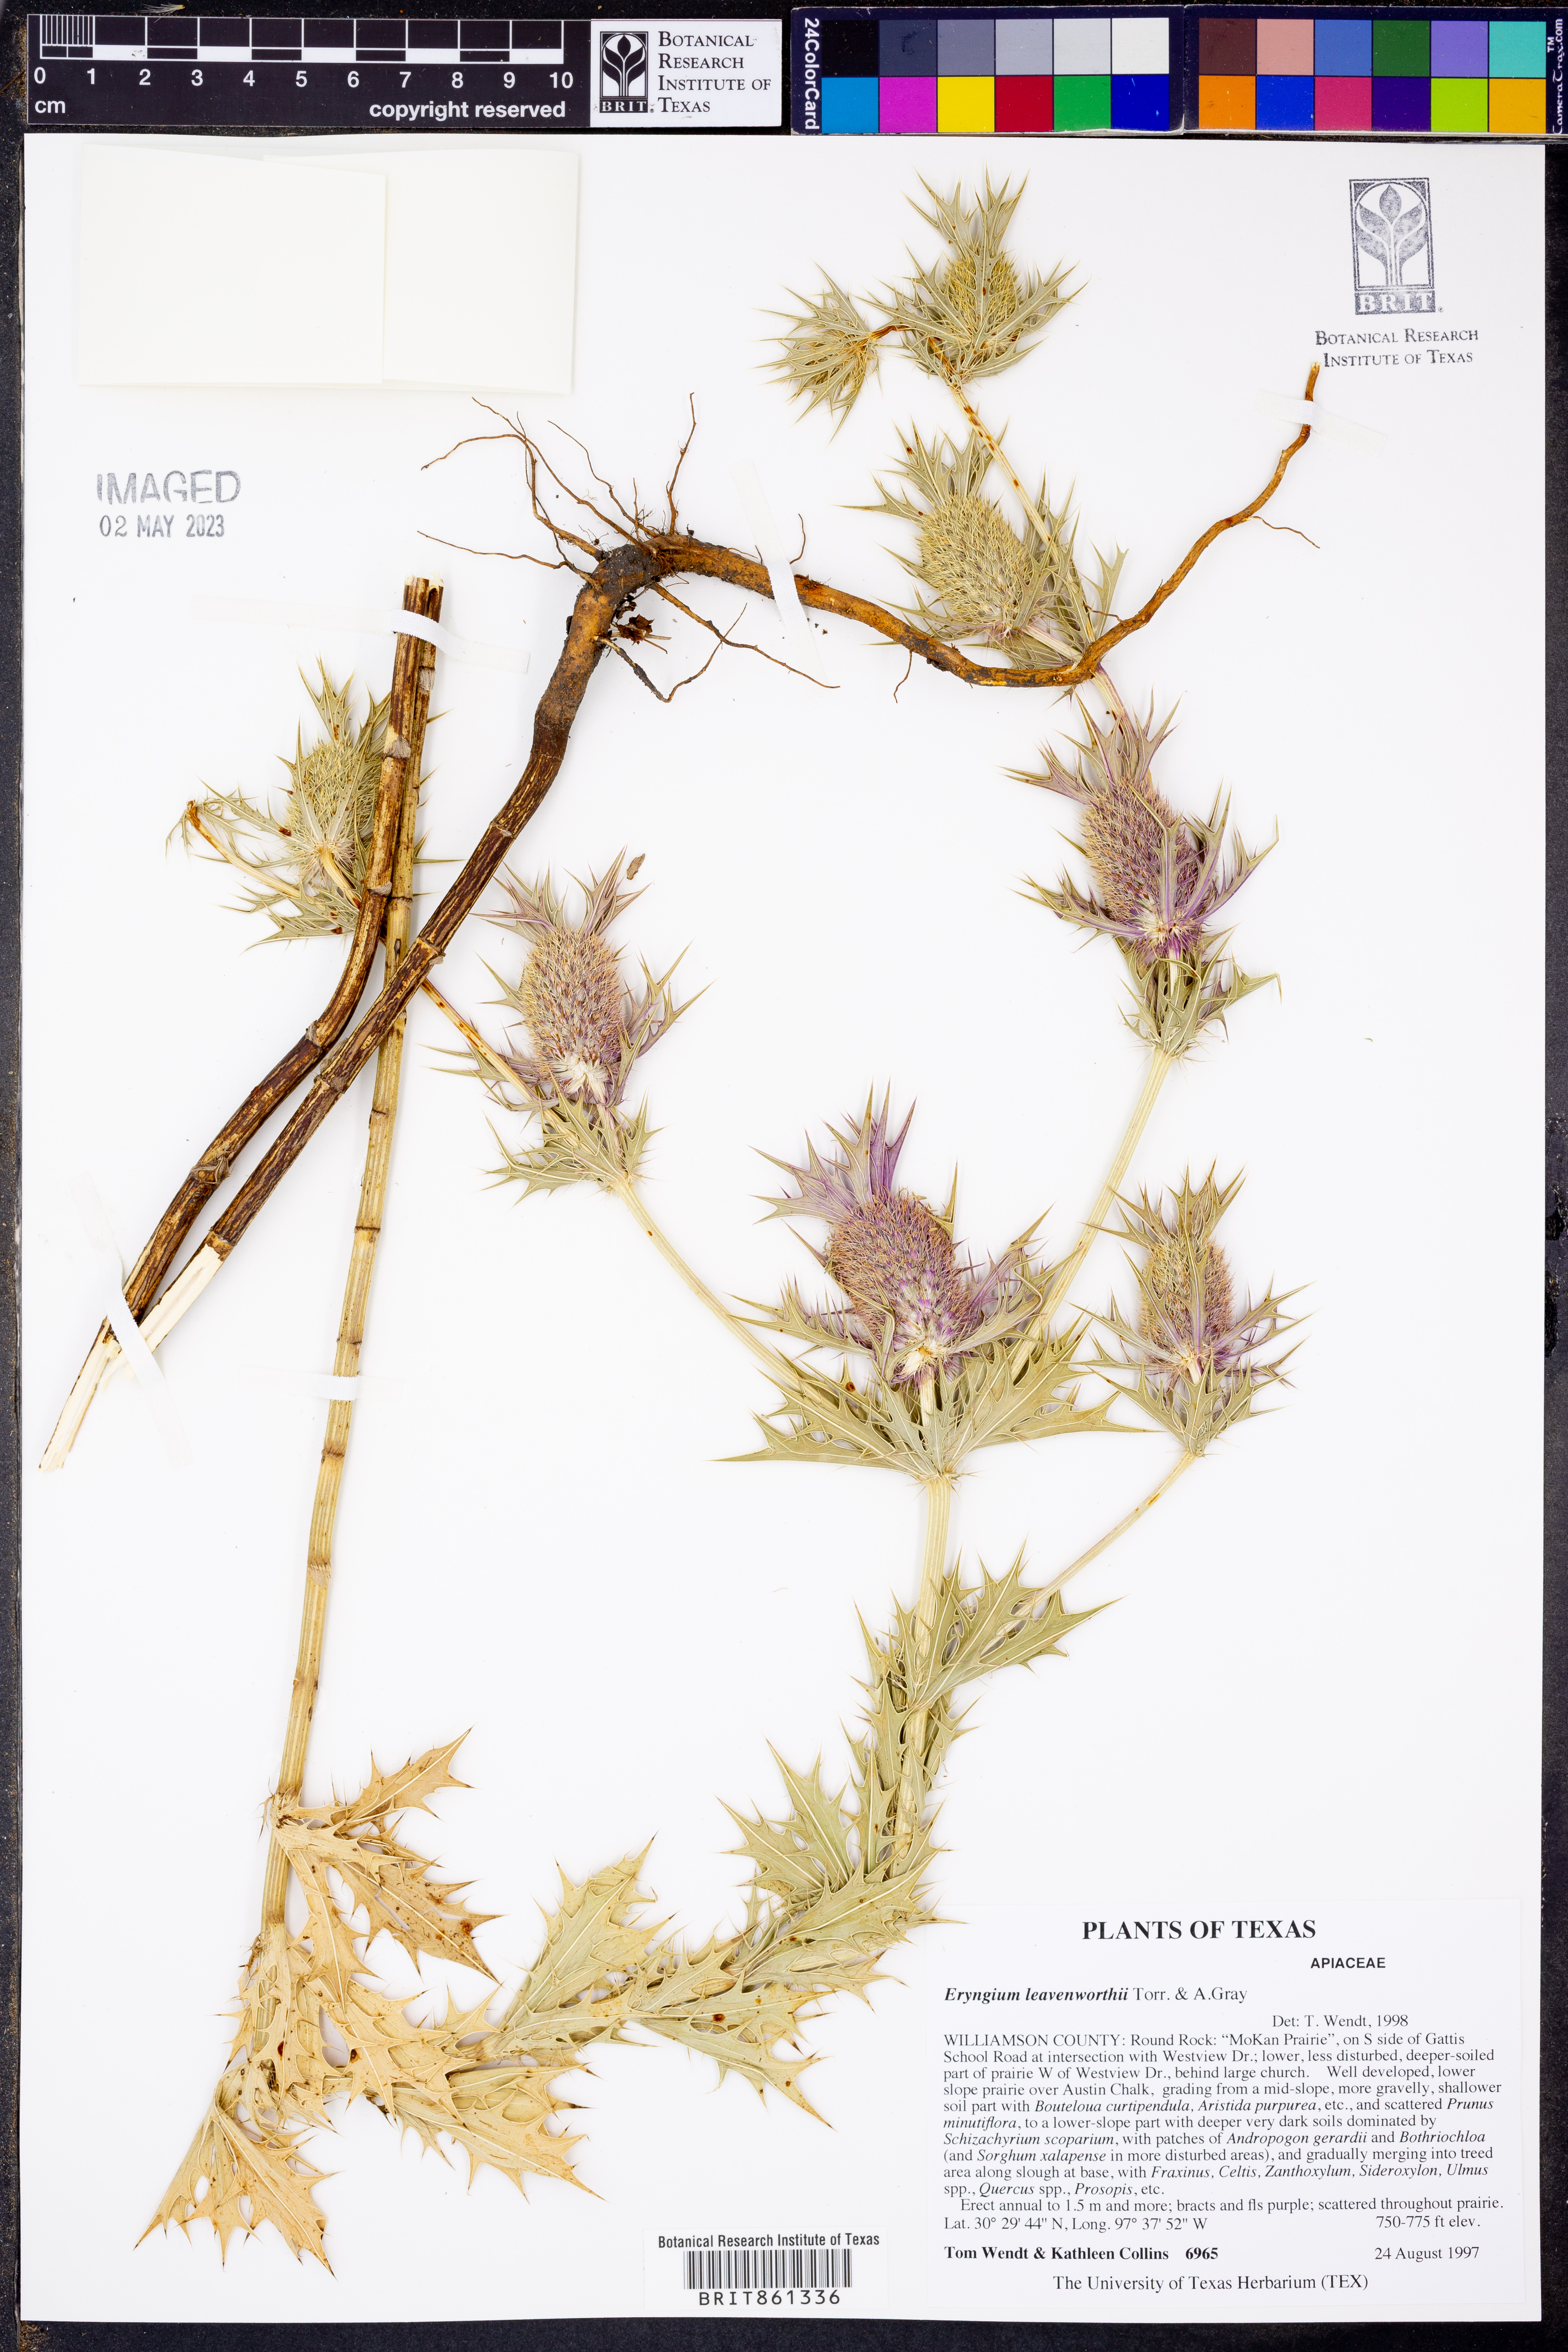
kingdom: Plantae
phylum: Tracheophyta
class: Magnoliopsida
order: Apiales
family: Apiaceae
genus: Eryngium
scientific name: Eryngium leavenworthii
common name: Leavenworth's eryngo
